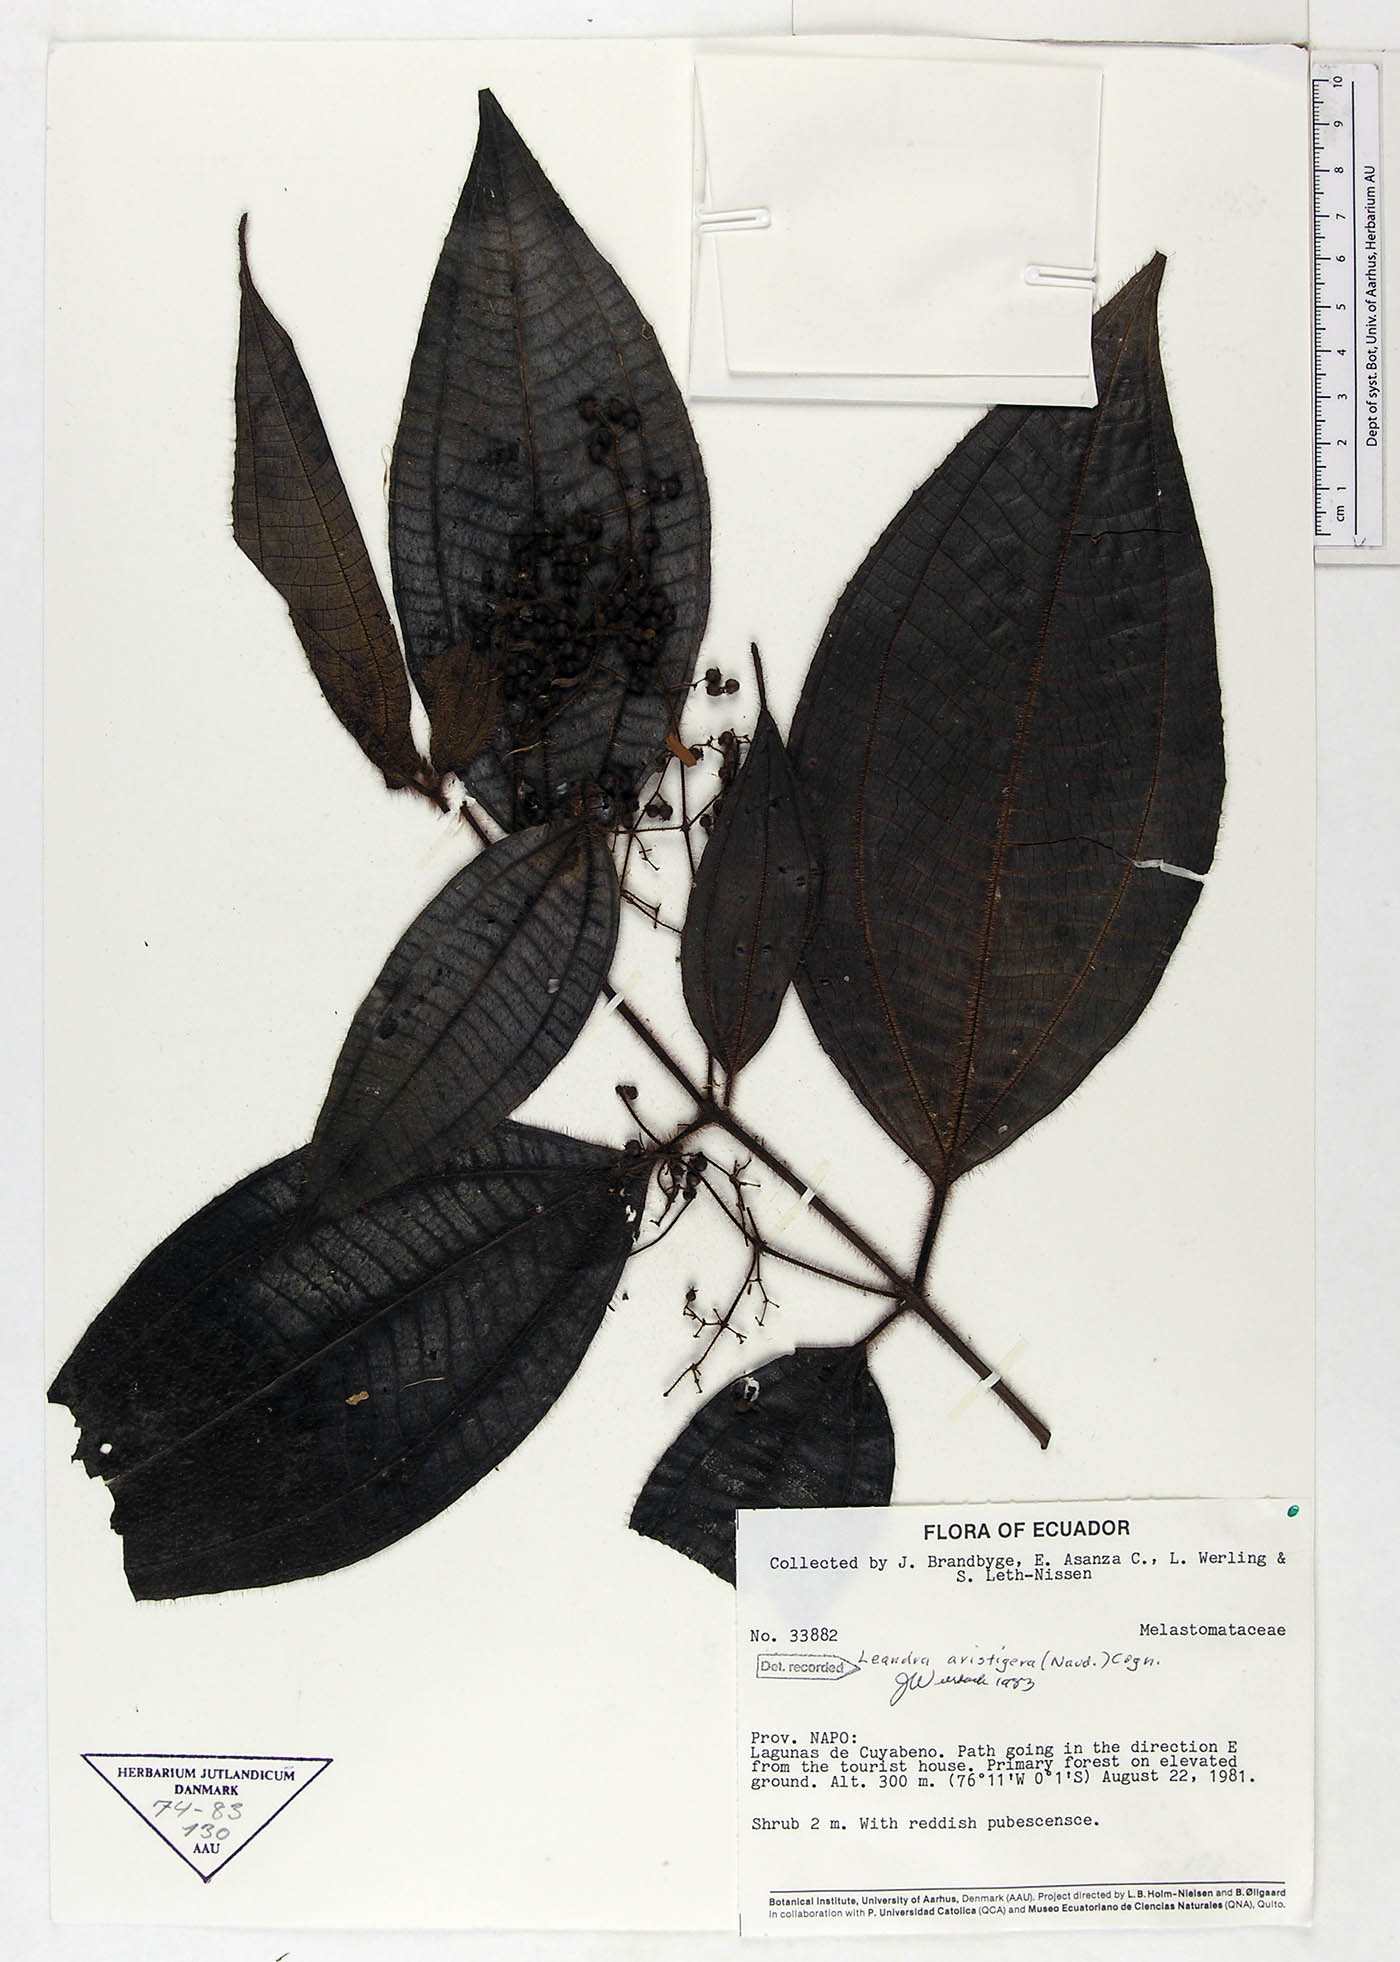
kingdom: Plantae
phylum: Tracheophyta
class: Magnoliopsida
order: Myrtales
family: Melastomataceae
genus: Miconia
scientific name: Miconia aristigera
